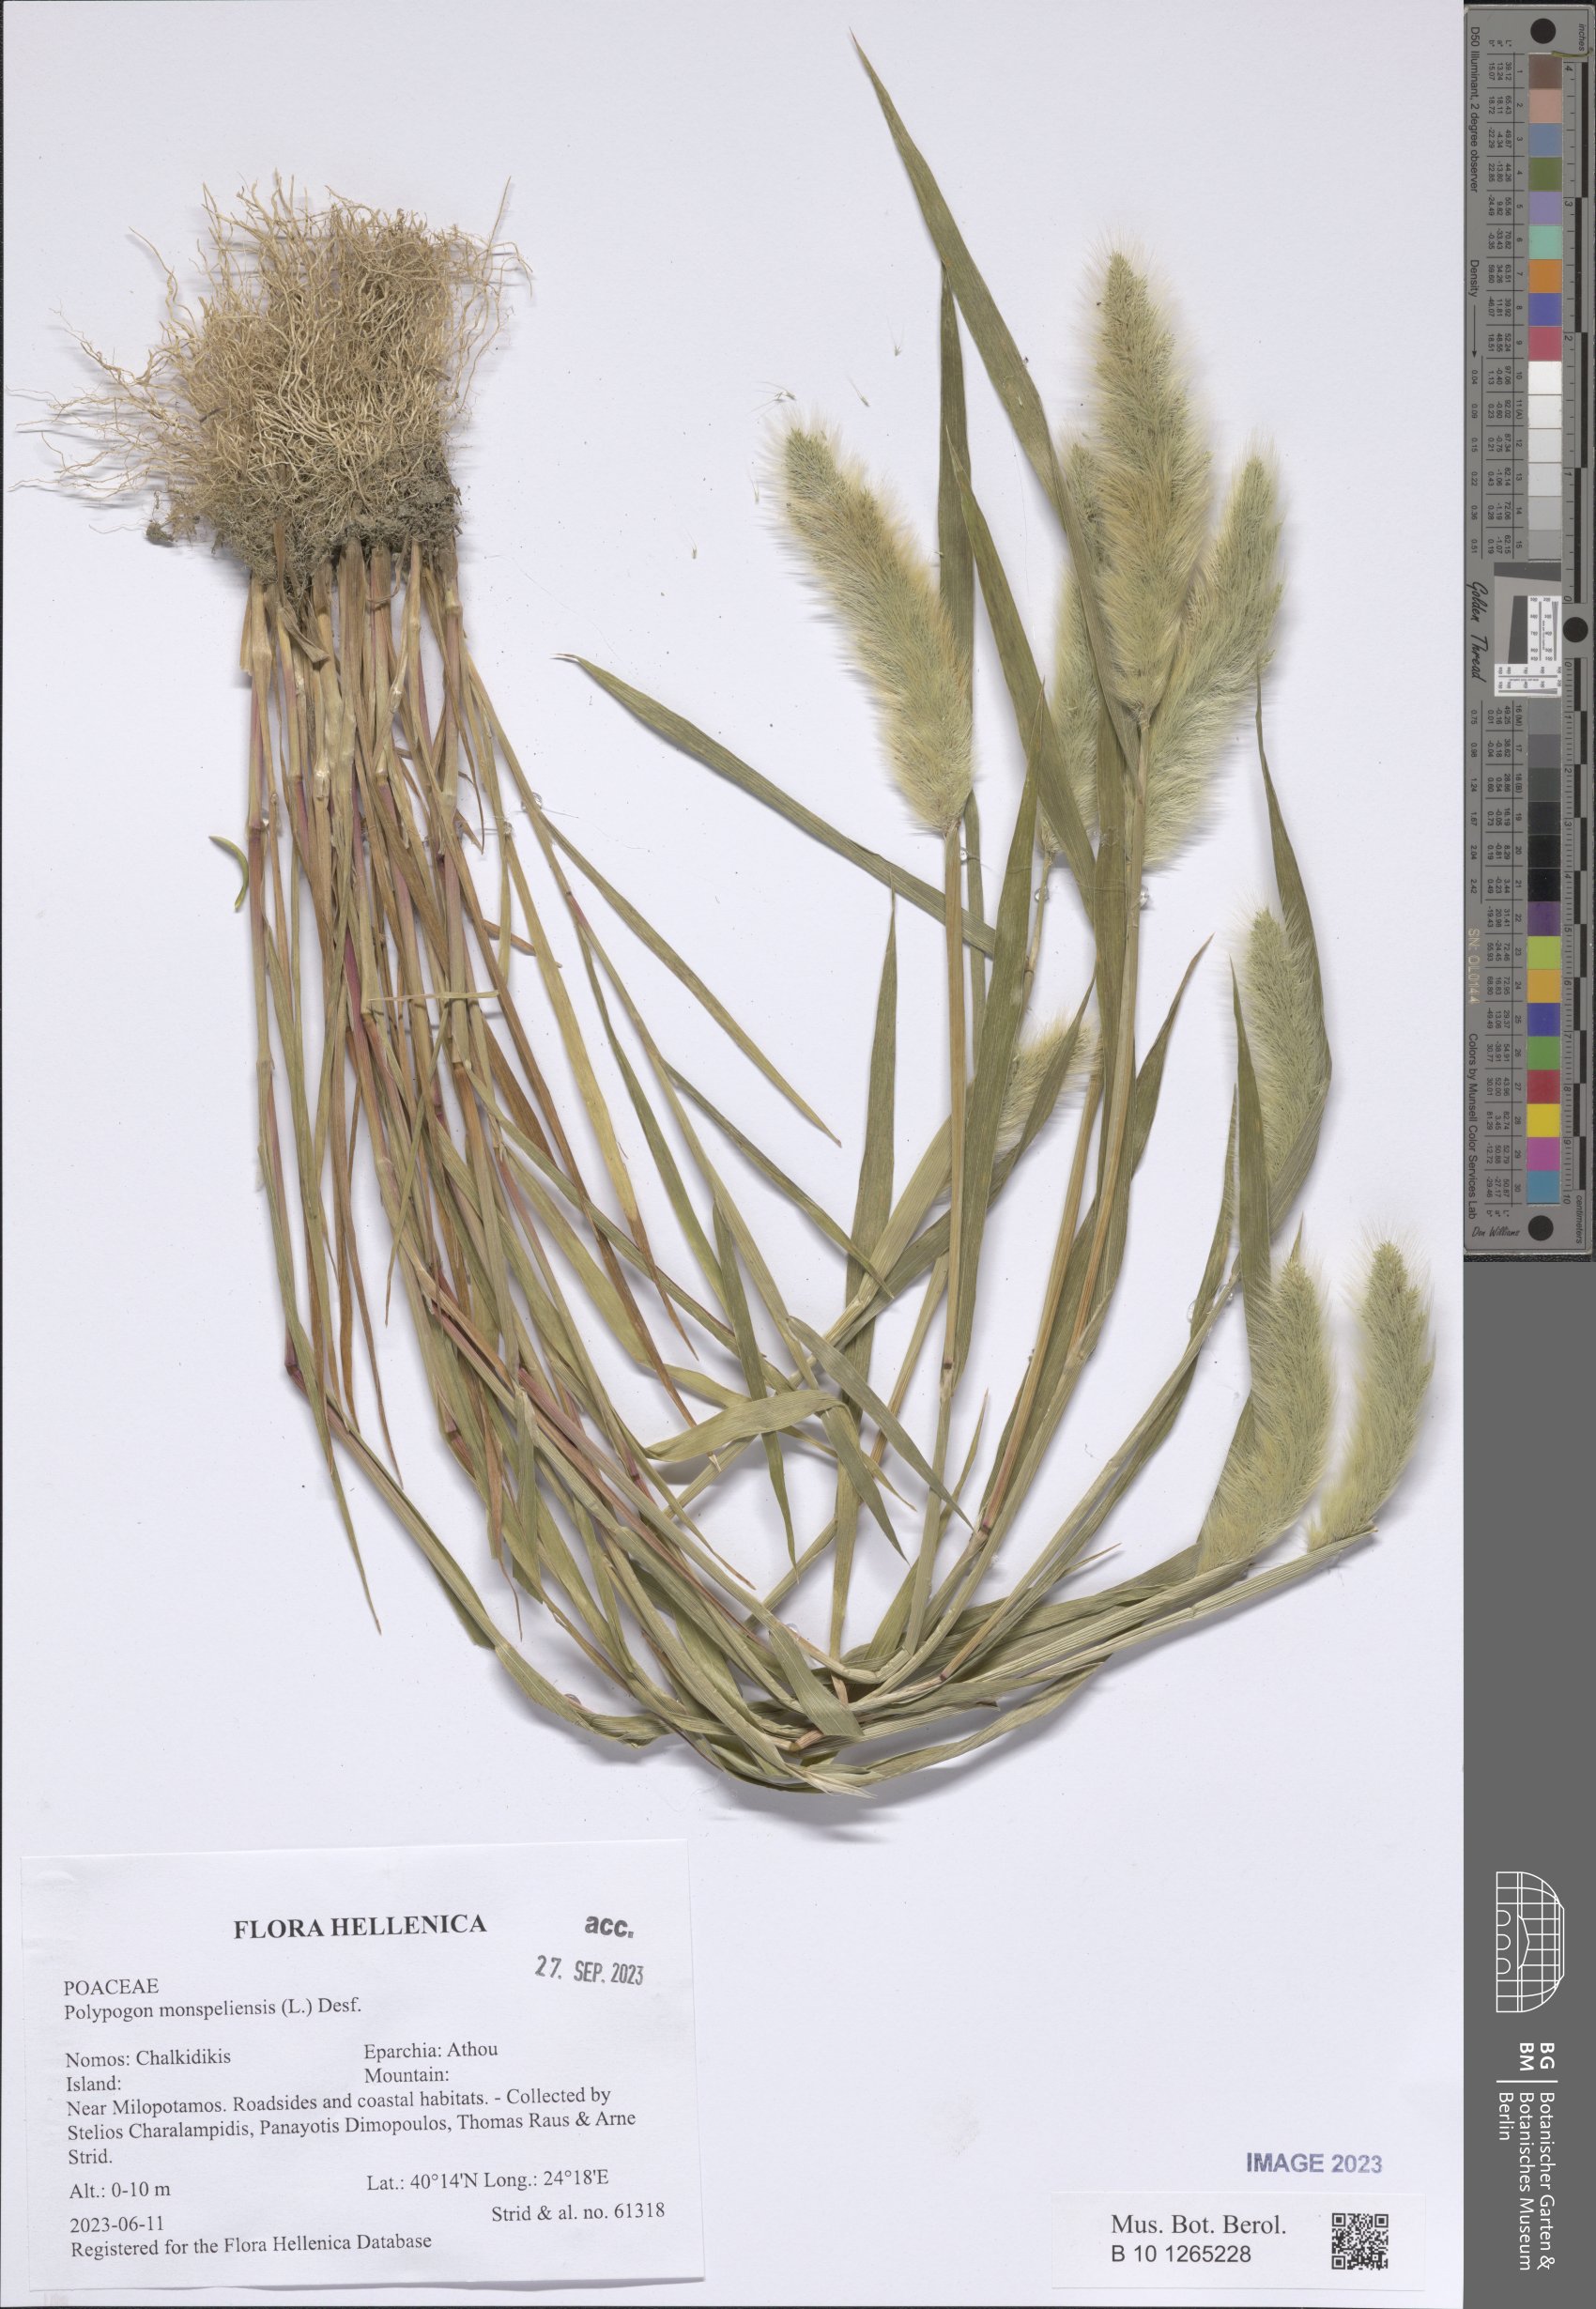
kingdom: Plantae
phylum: Tracheophyta
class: Liliopsida
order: Poales
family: Poaceae
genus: Polypogon
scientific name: Polypogon monspeliensis
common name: Annual rabbitsfoot grass
